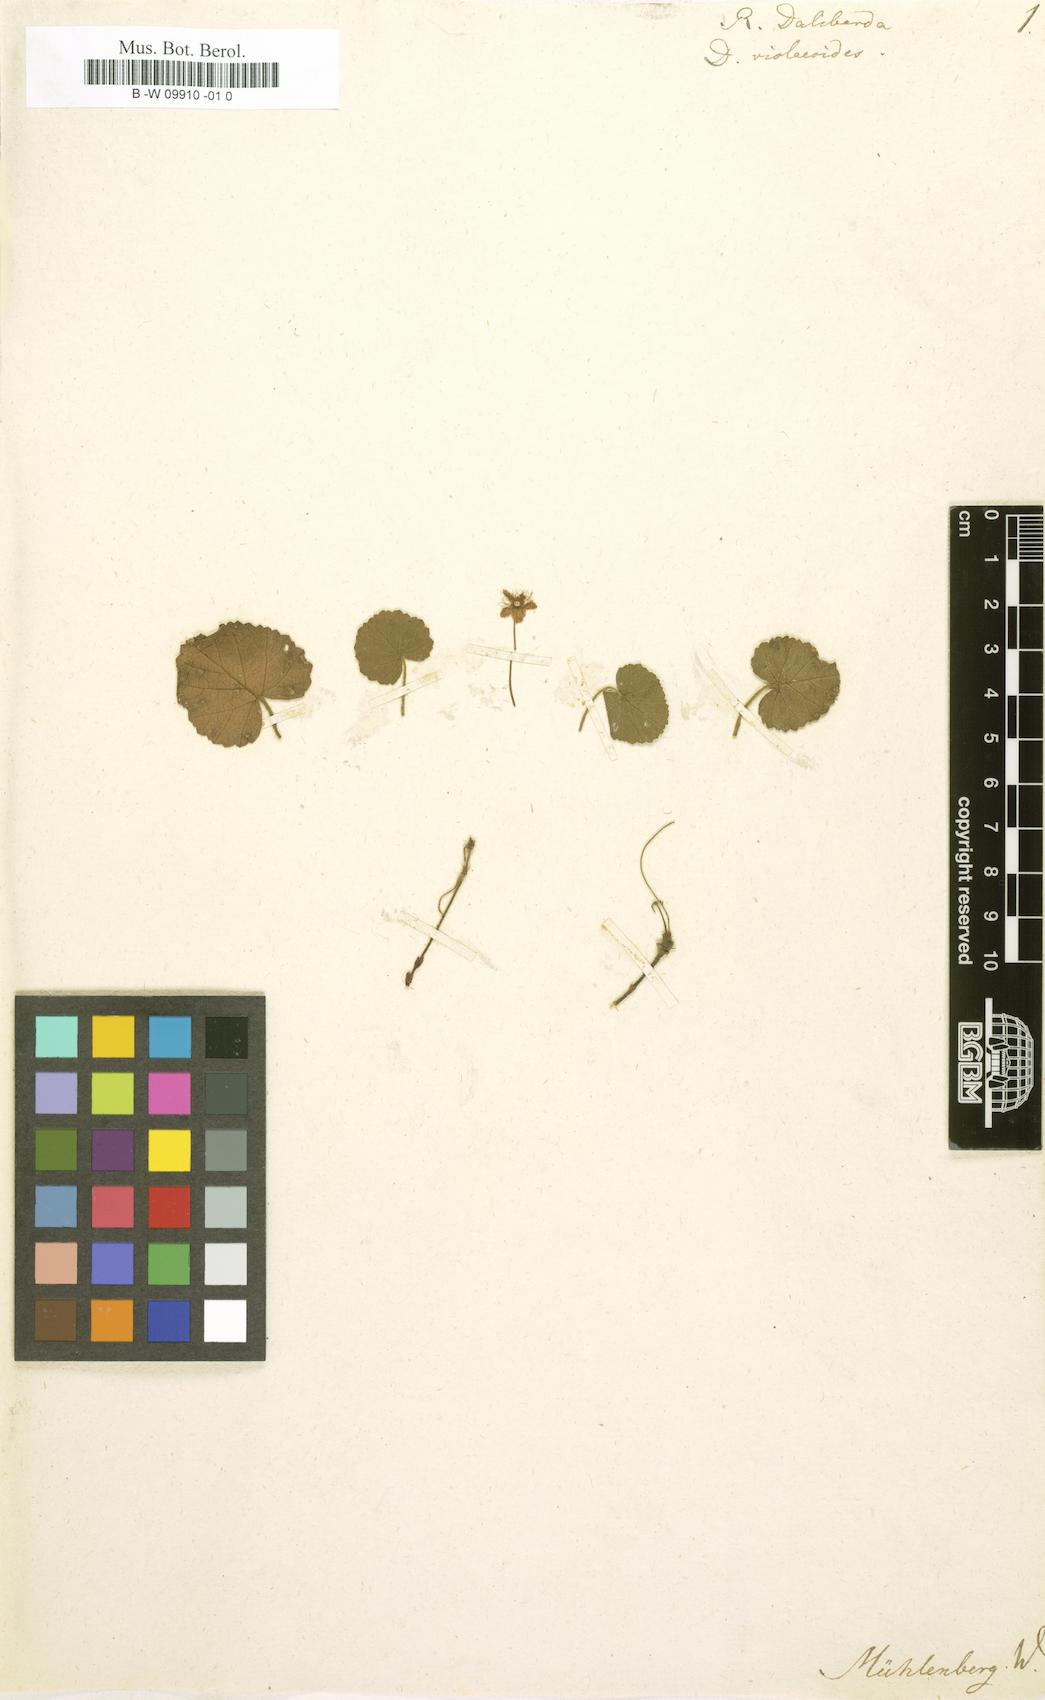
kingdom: Plantae
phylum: Tracheophyta
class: Magnoliopsida
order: Rosales
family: Rosaceae
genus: Dalibarda
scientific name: Dalibarda repens
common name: Dewdrop
